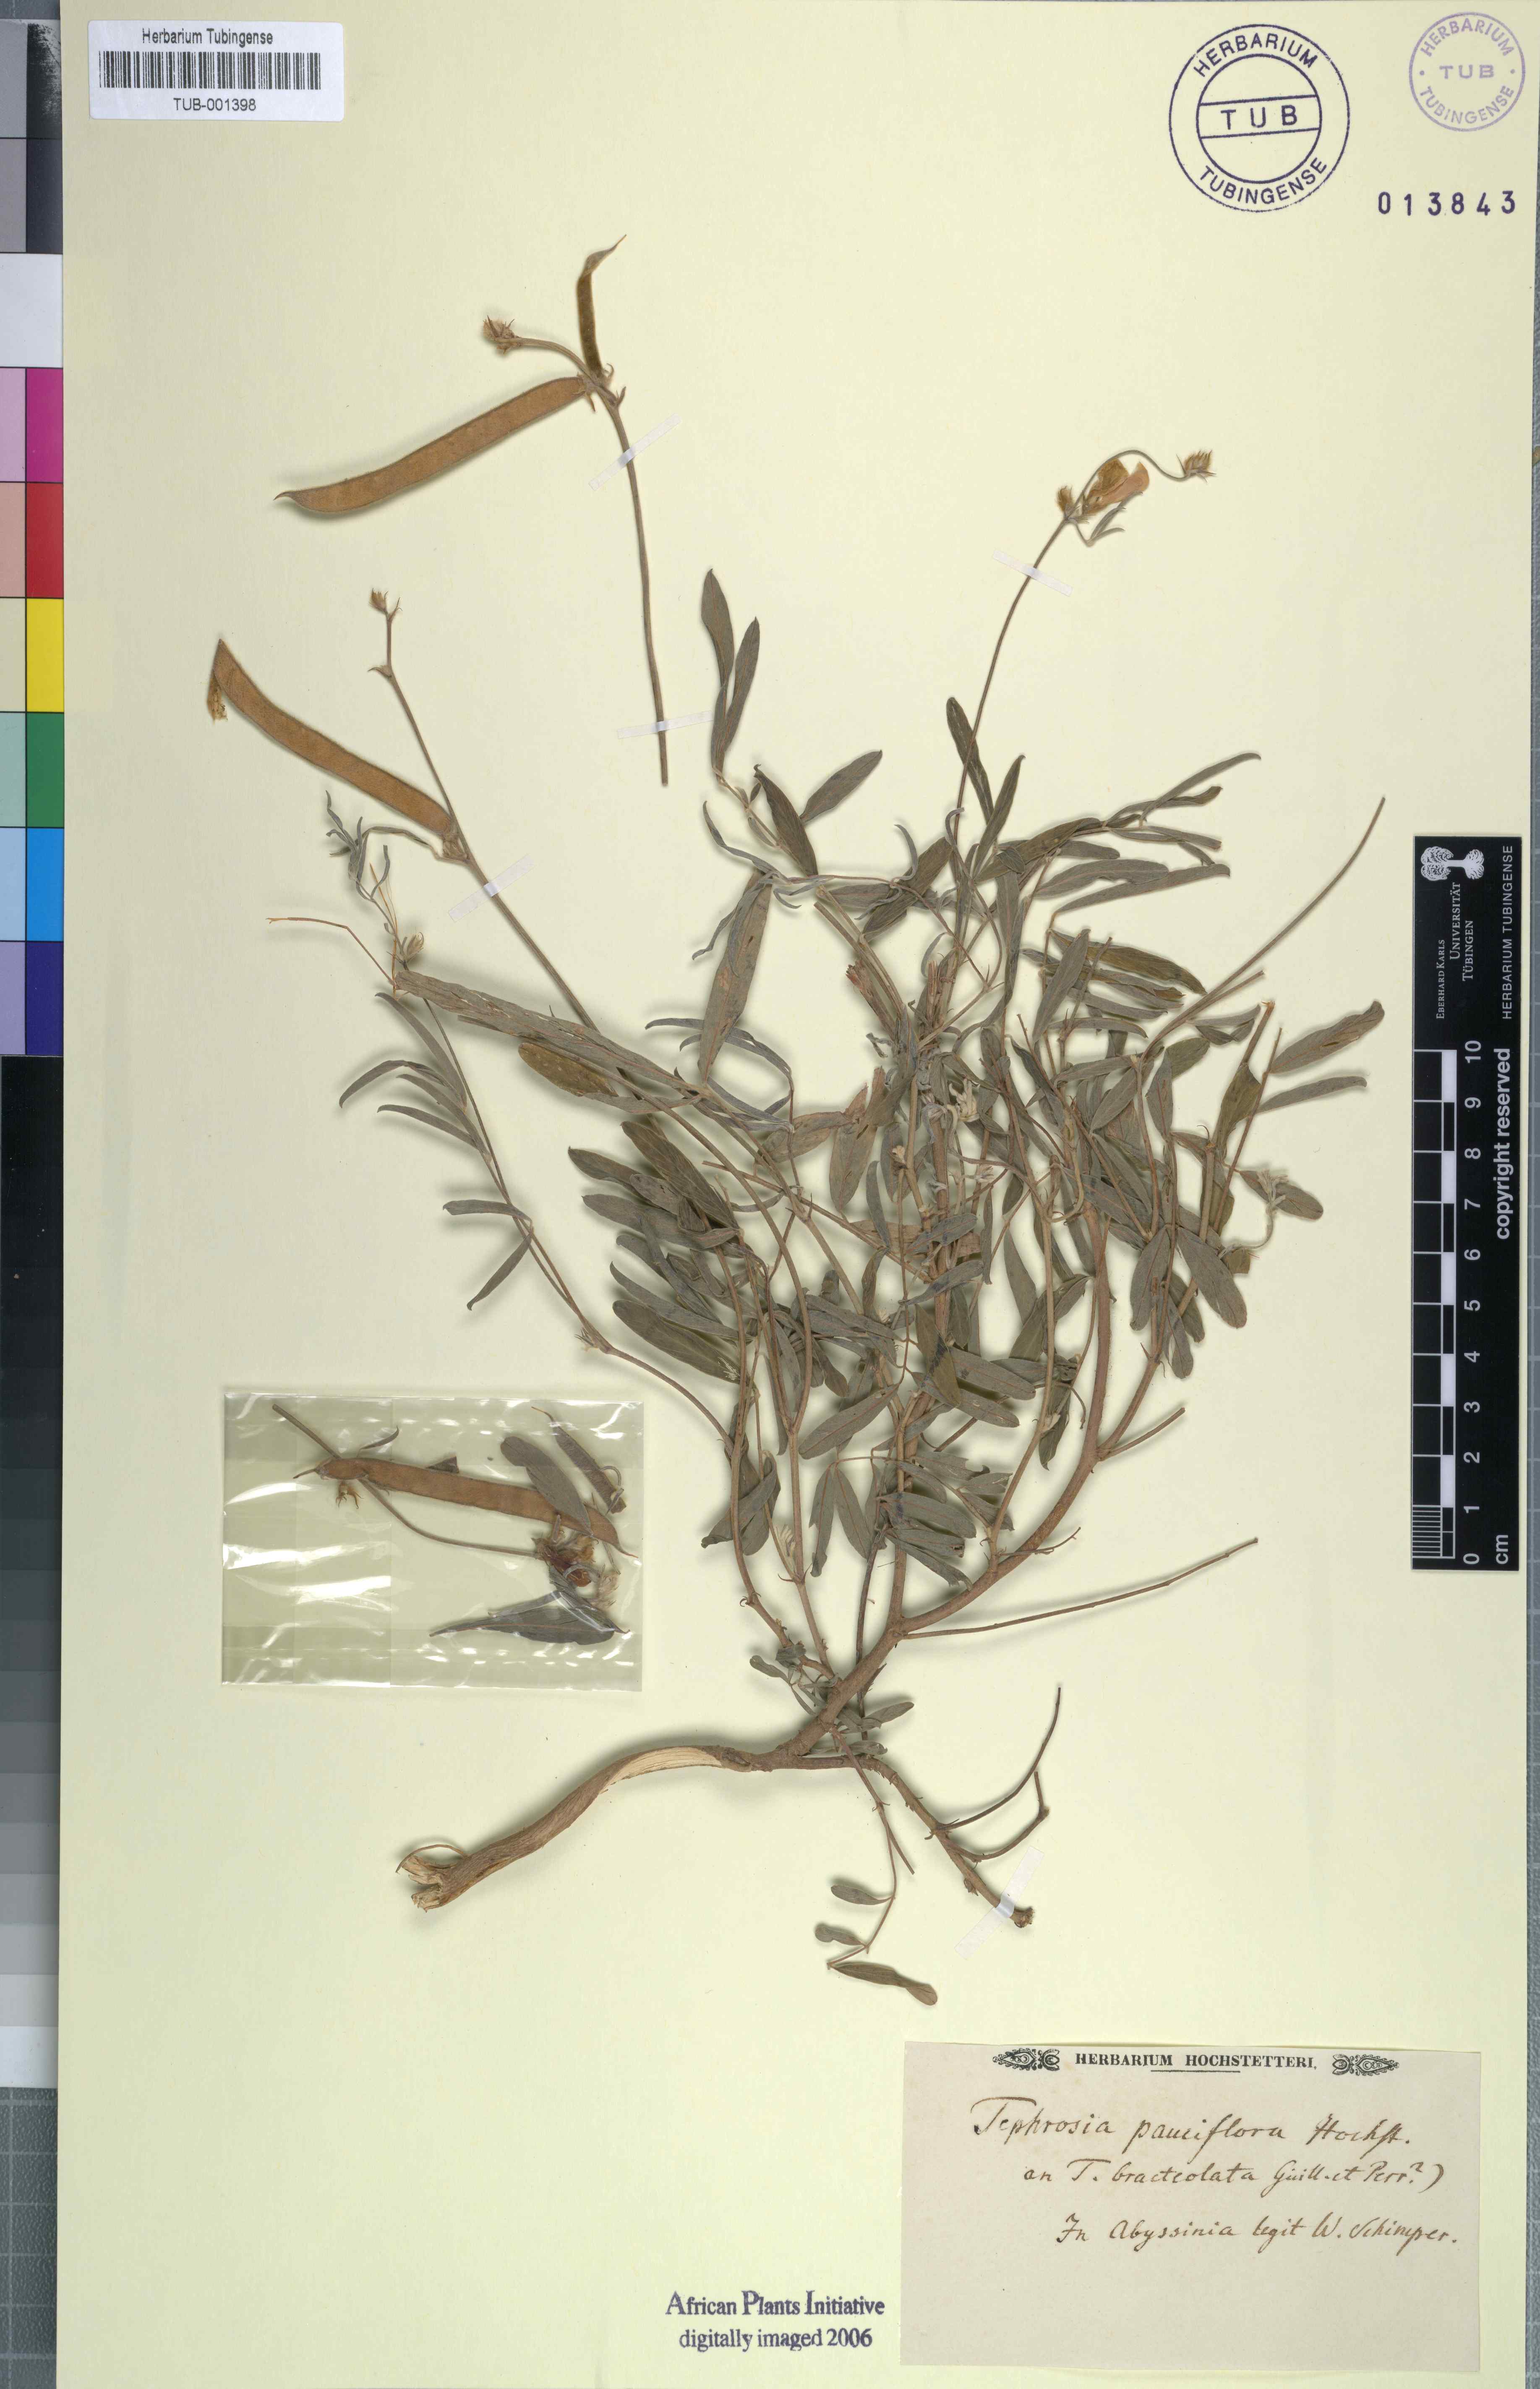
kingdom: Plantae
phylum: Tracheophyta
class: Magnoliopsida
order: Fabales
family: Fabaceae
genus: Tephrosia
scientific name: Tephrosia subtriflora
